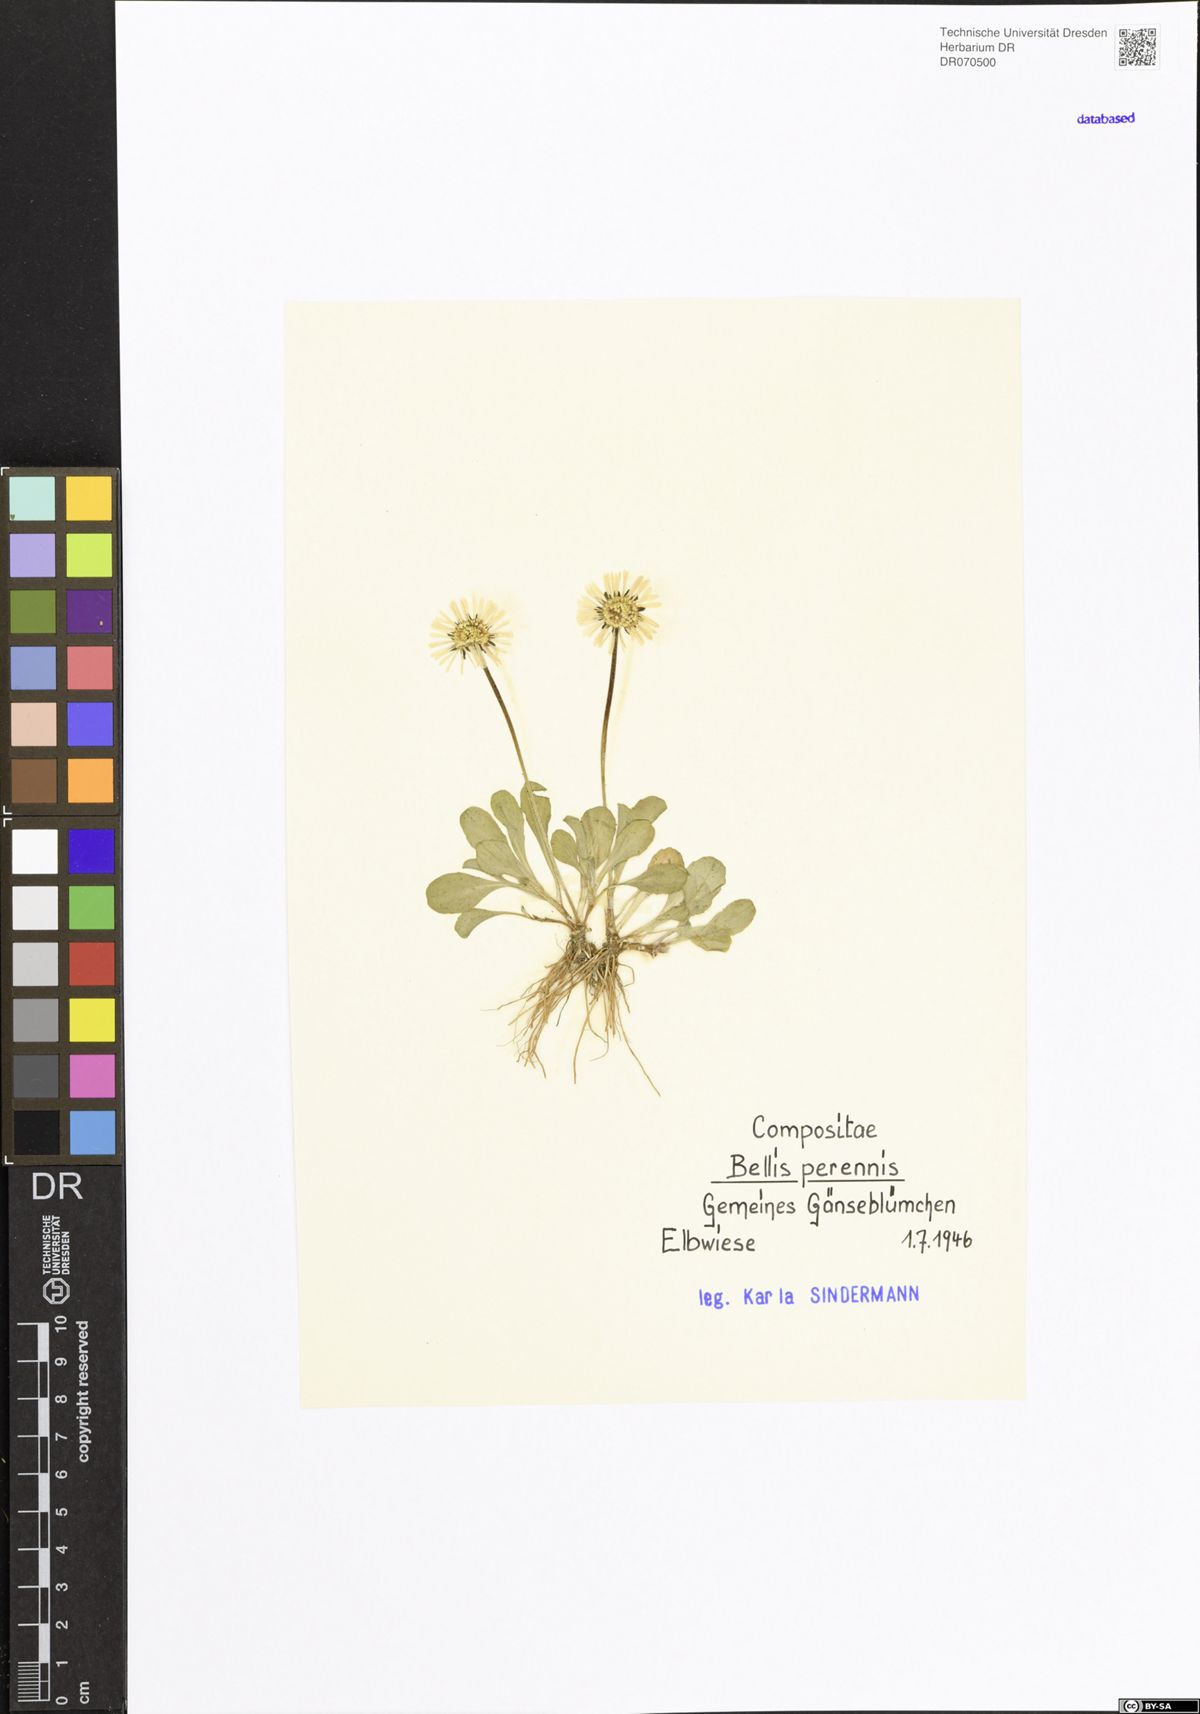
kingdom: Plantae
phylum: Tracheophyta
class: Magnoliopsida
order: Asterales
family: Asteraceae
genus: Bellis
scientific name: Bellis perennis
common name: Lawndaisy
